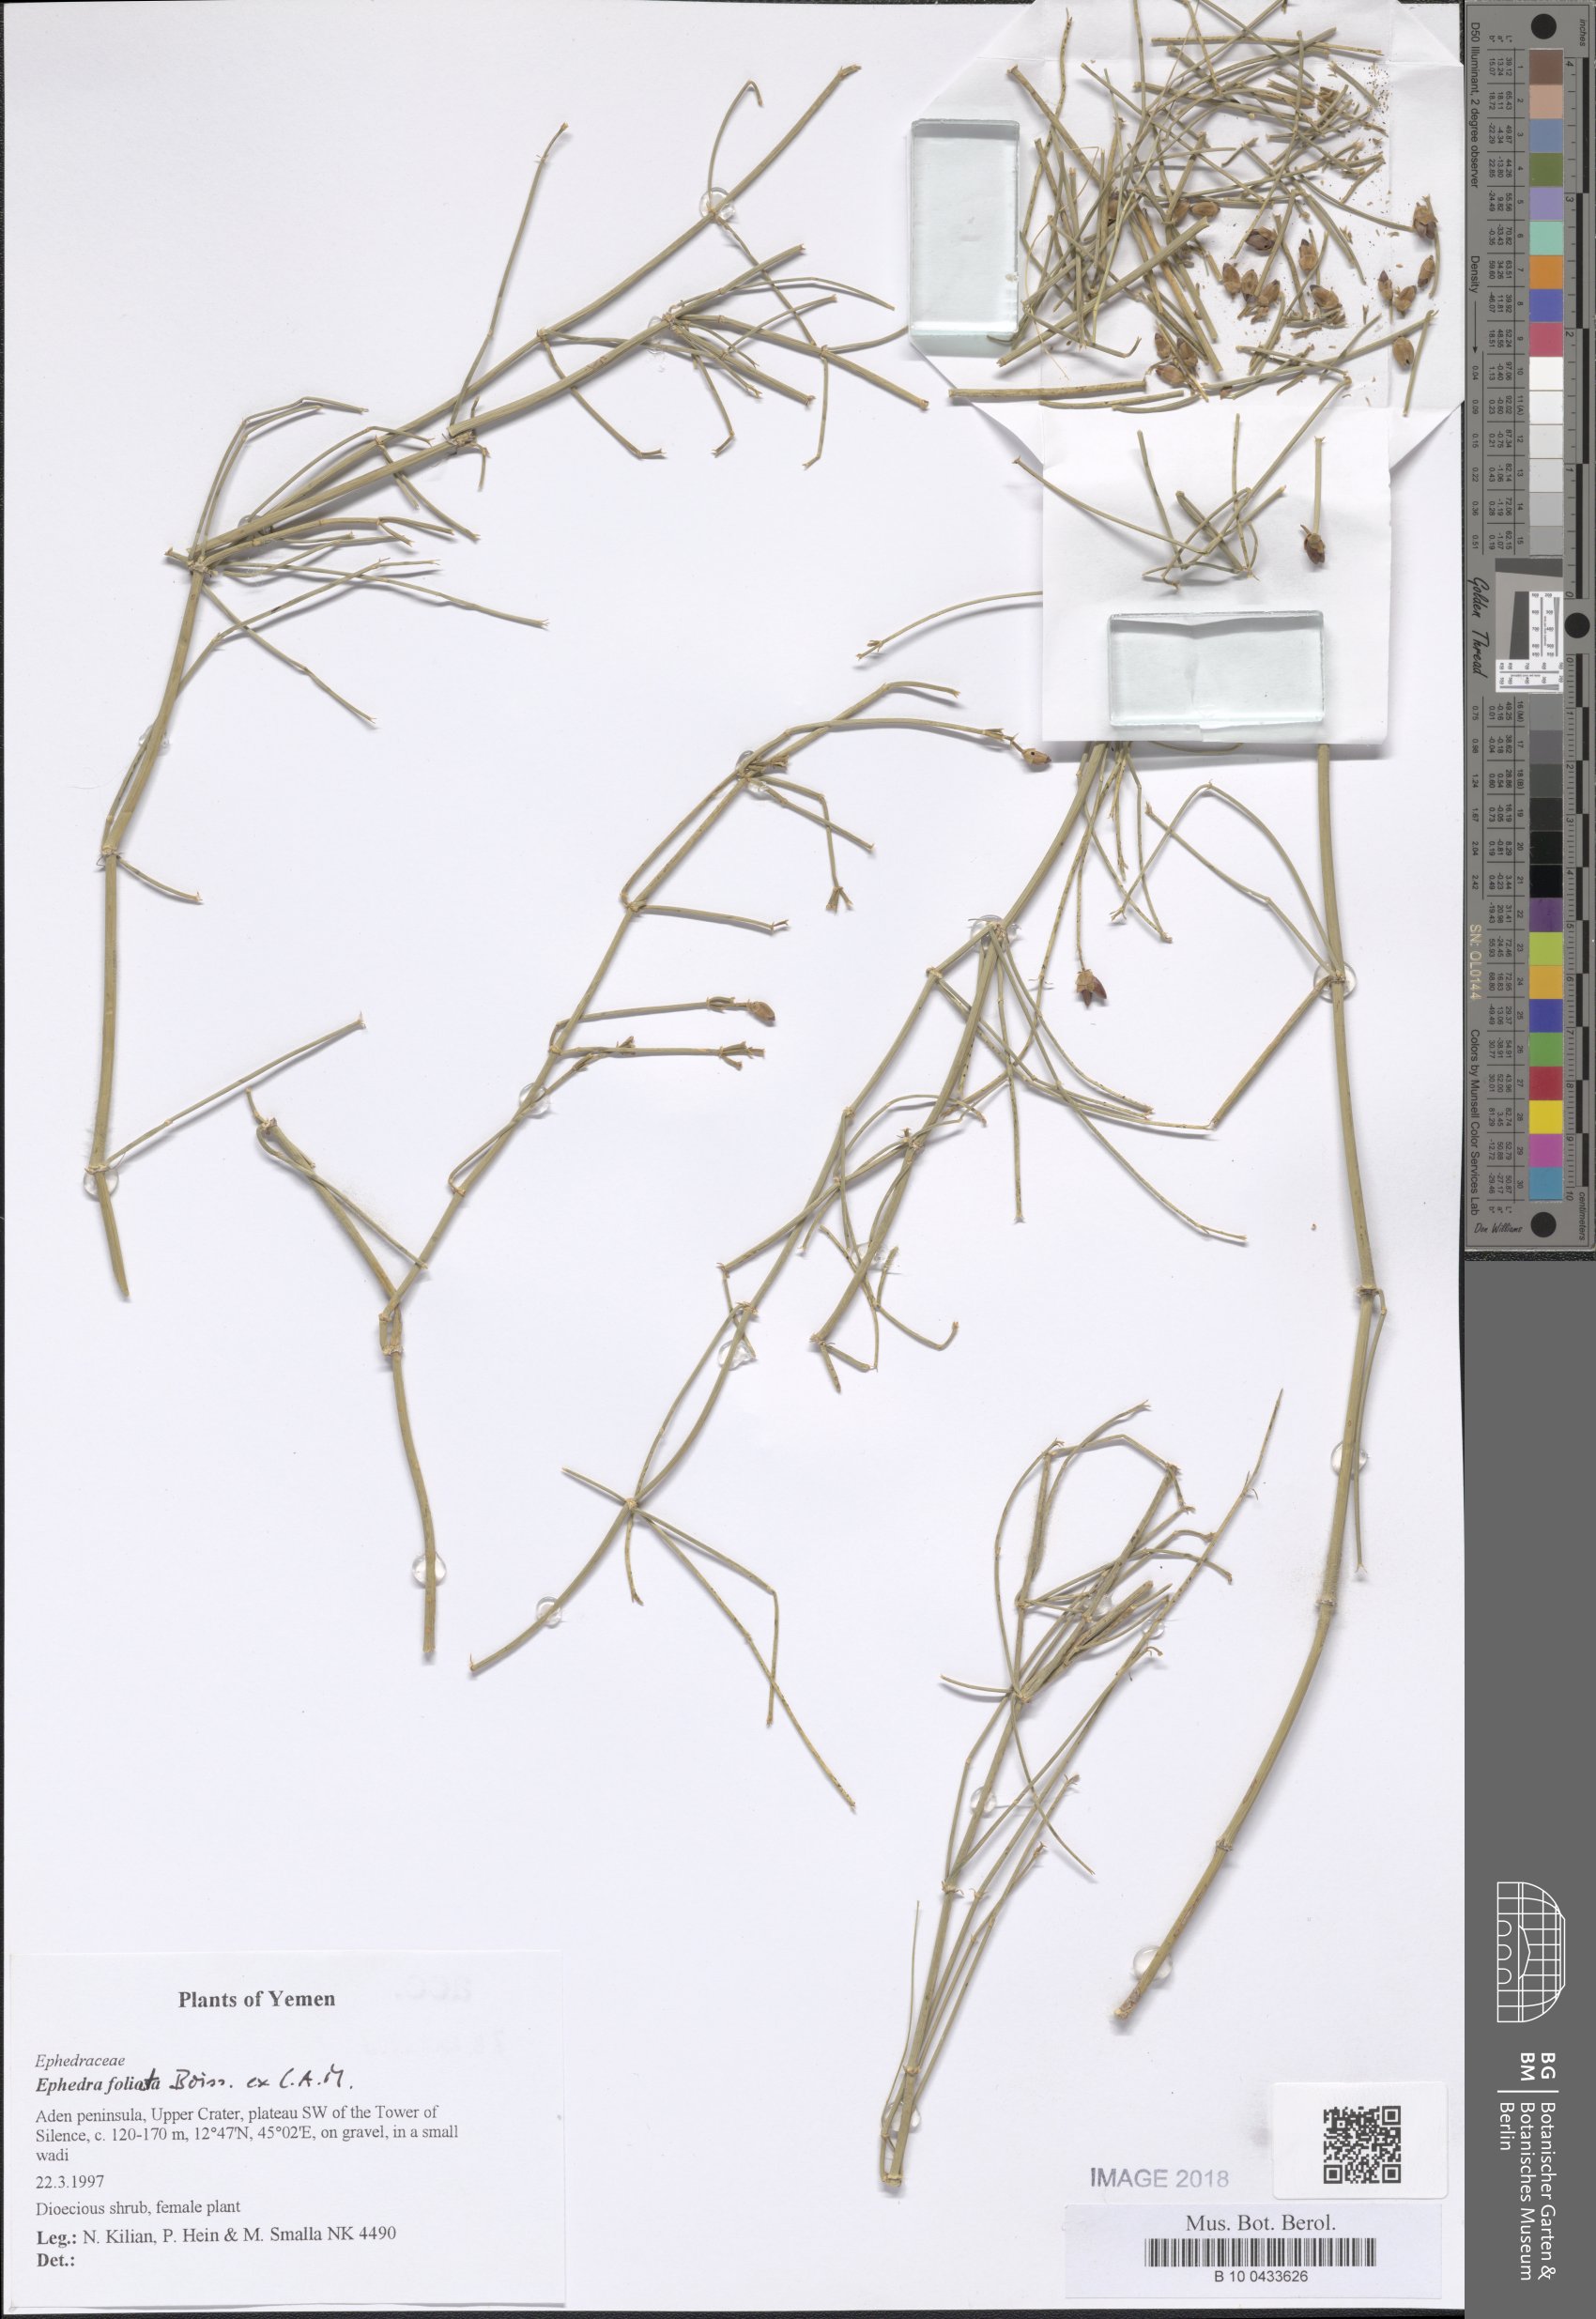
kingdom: Plantae
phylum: Tracheophyta
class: Gnetopsida
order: Ephedrales
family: Ephedraceae
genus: Ephedra
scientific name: Ephedra ciliata
